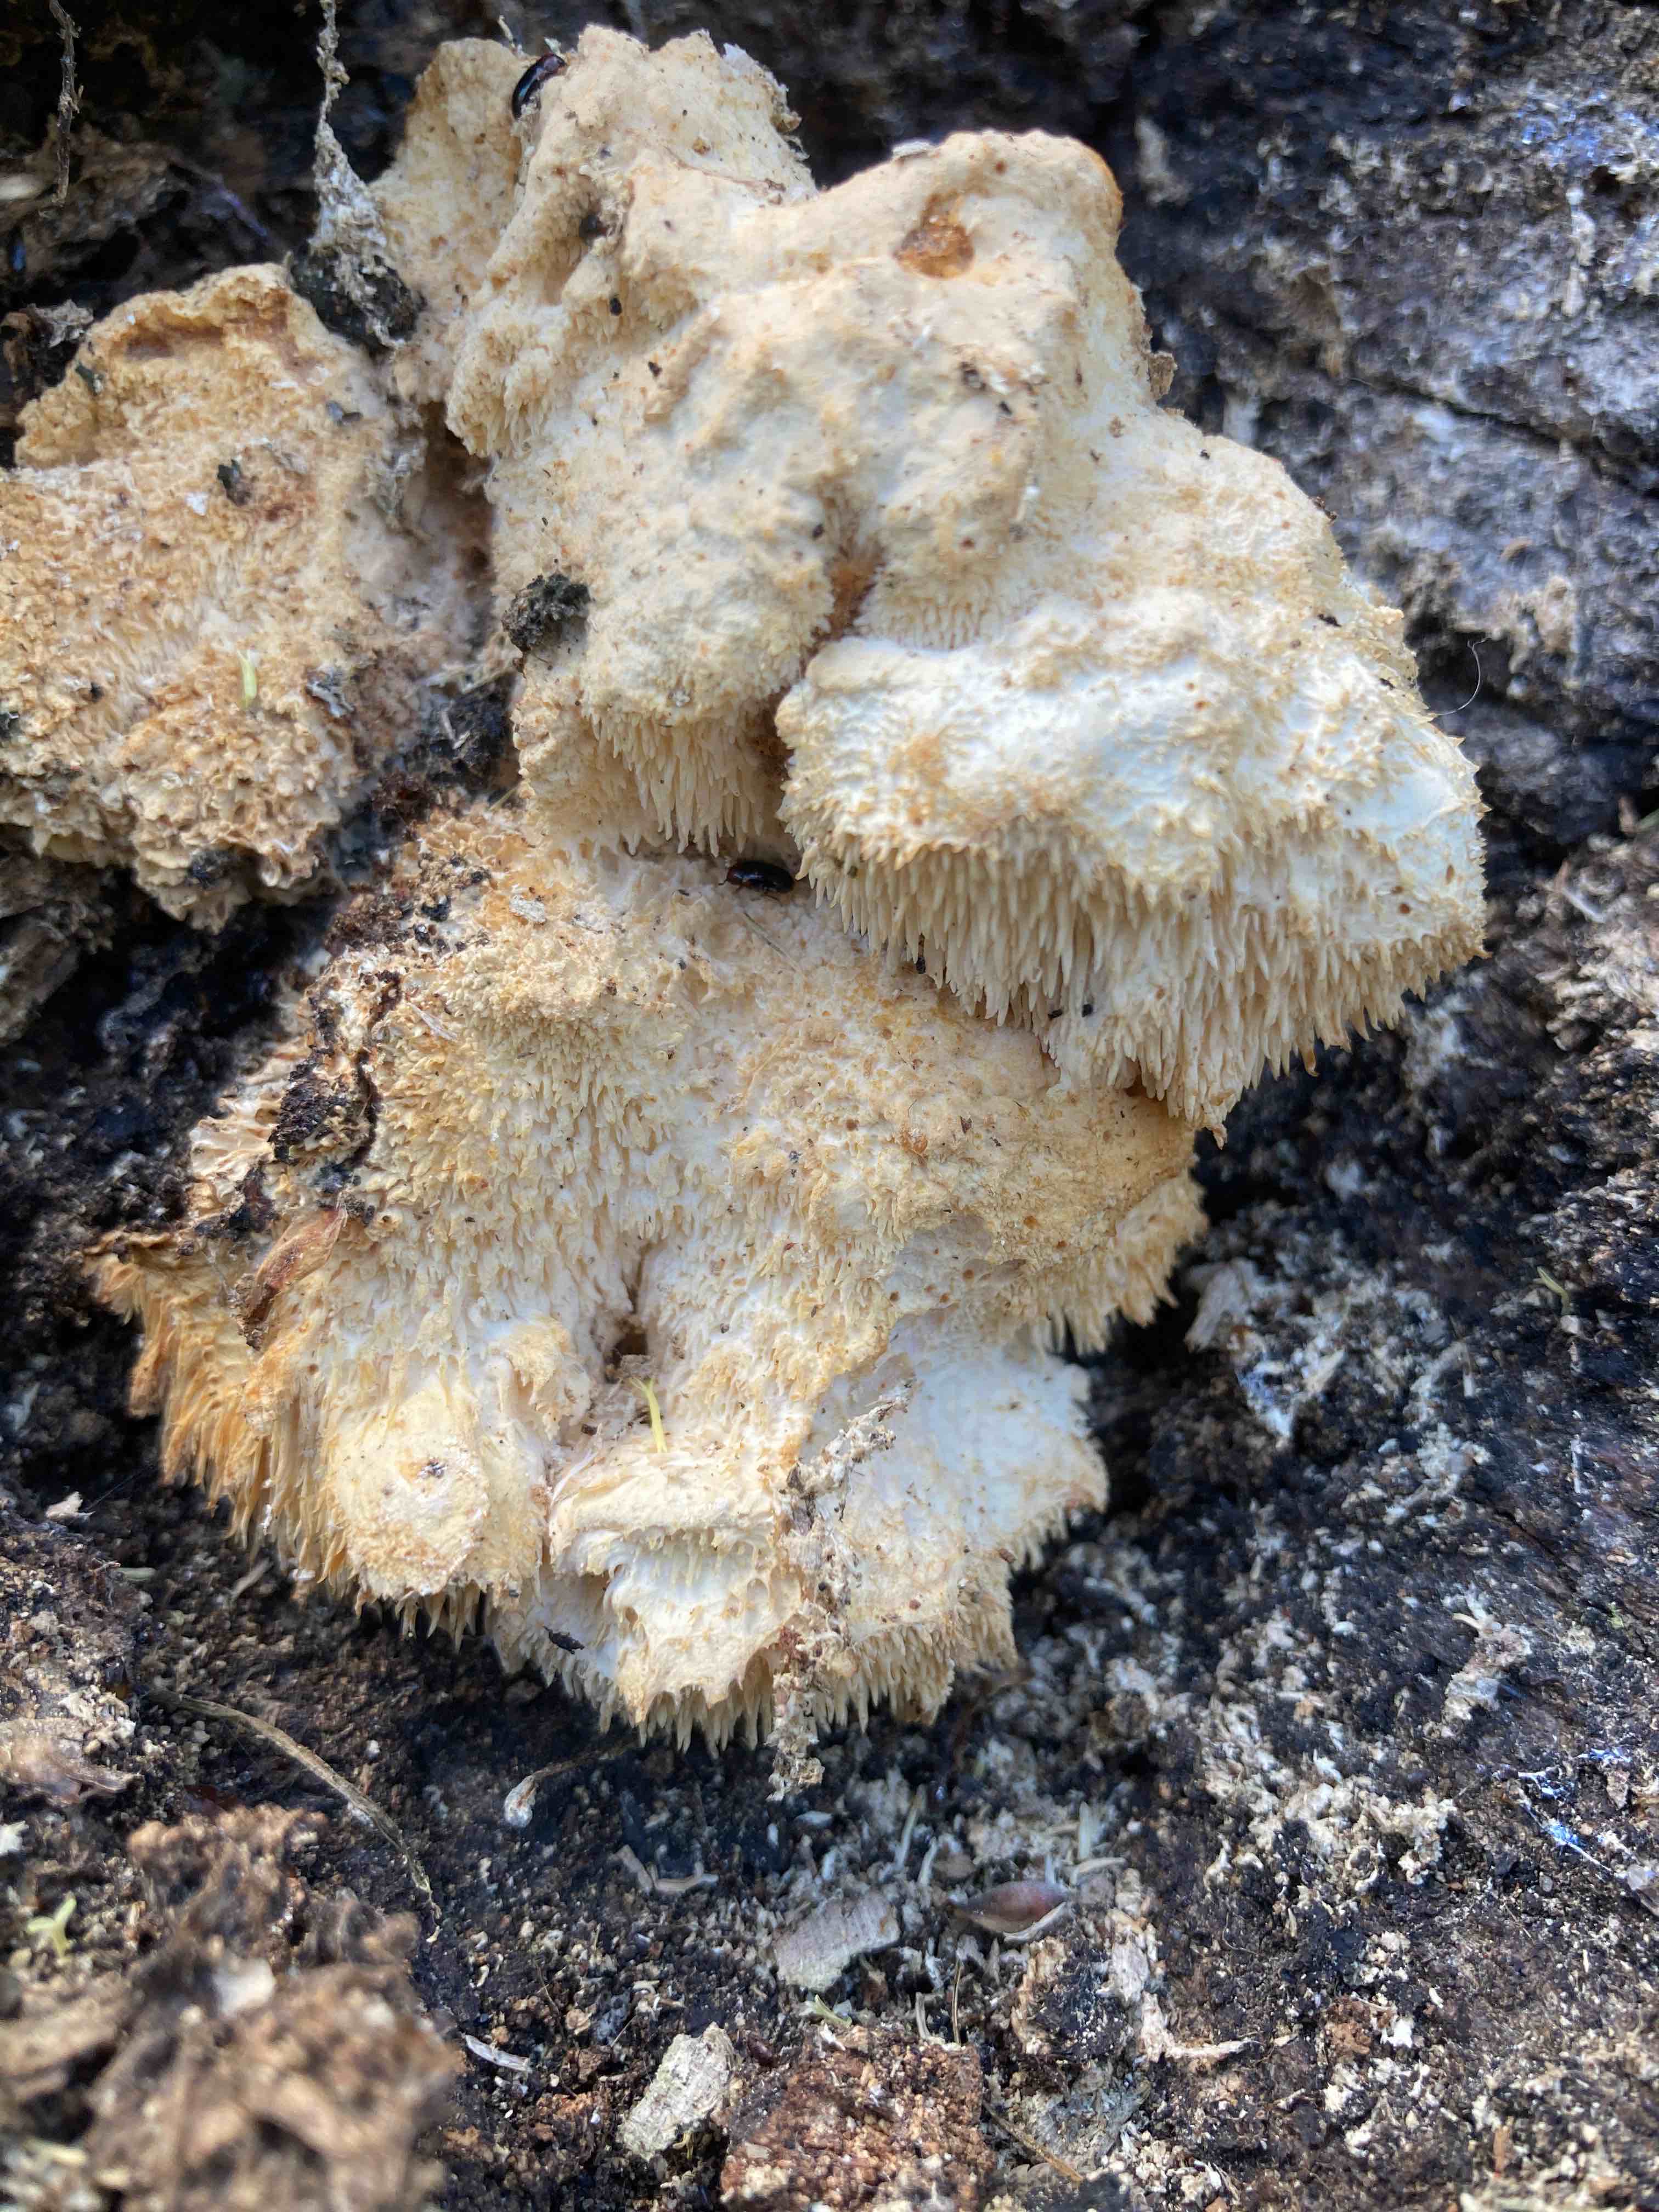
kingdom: Fungi
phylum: Basidiomycota
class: Agaricomycetes
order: Russulales
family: Hericiaceae
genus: Hericium
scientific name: Hericium cirrhatum
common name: børstepigsvamp
